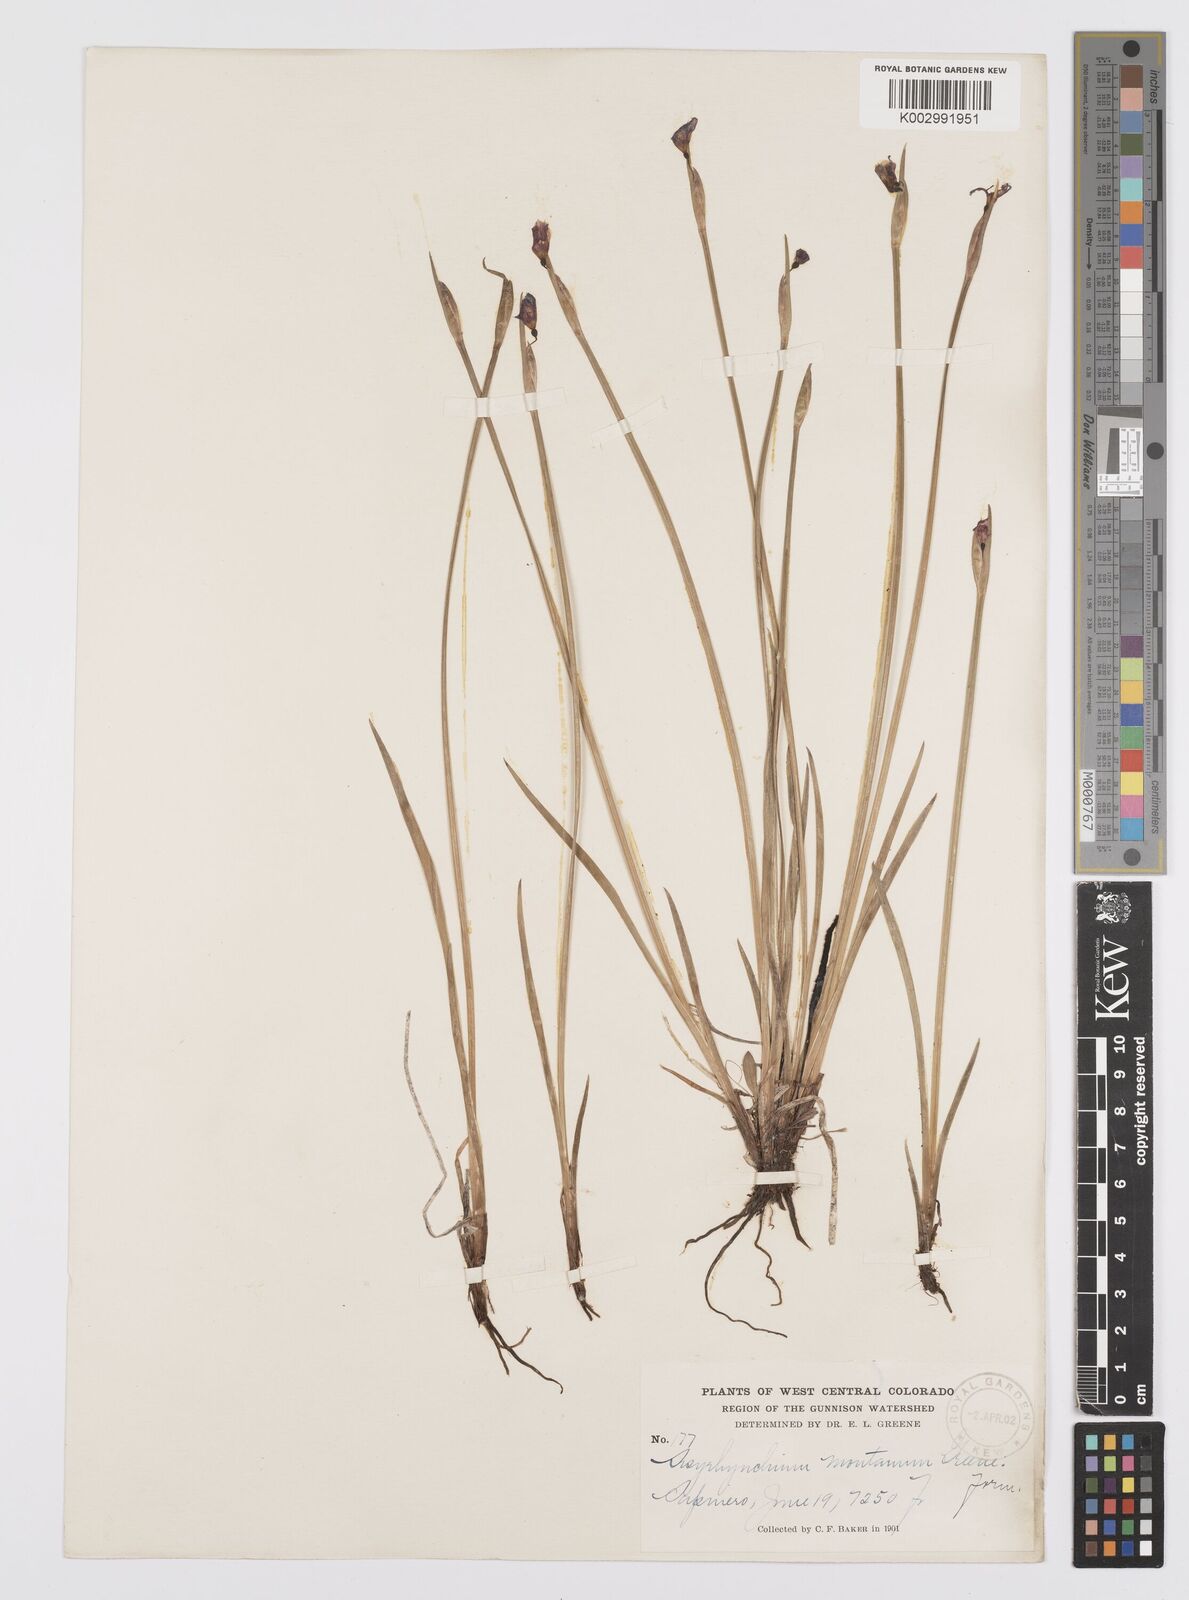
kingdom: Plantae
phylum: Tracheophyta
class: Liliopsida
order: Asparagales
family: Iridaceae
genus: Sisyrinchium
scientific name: Sisyrinchium montanum
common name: American blue-eyed-grass
